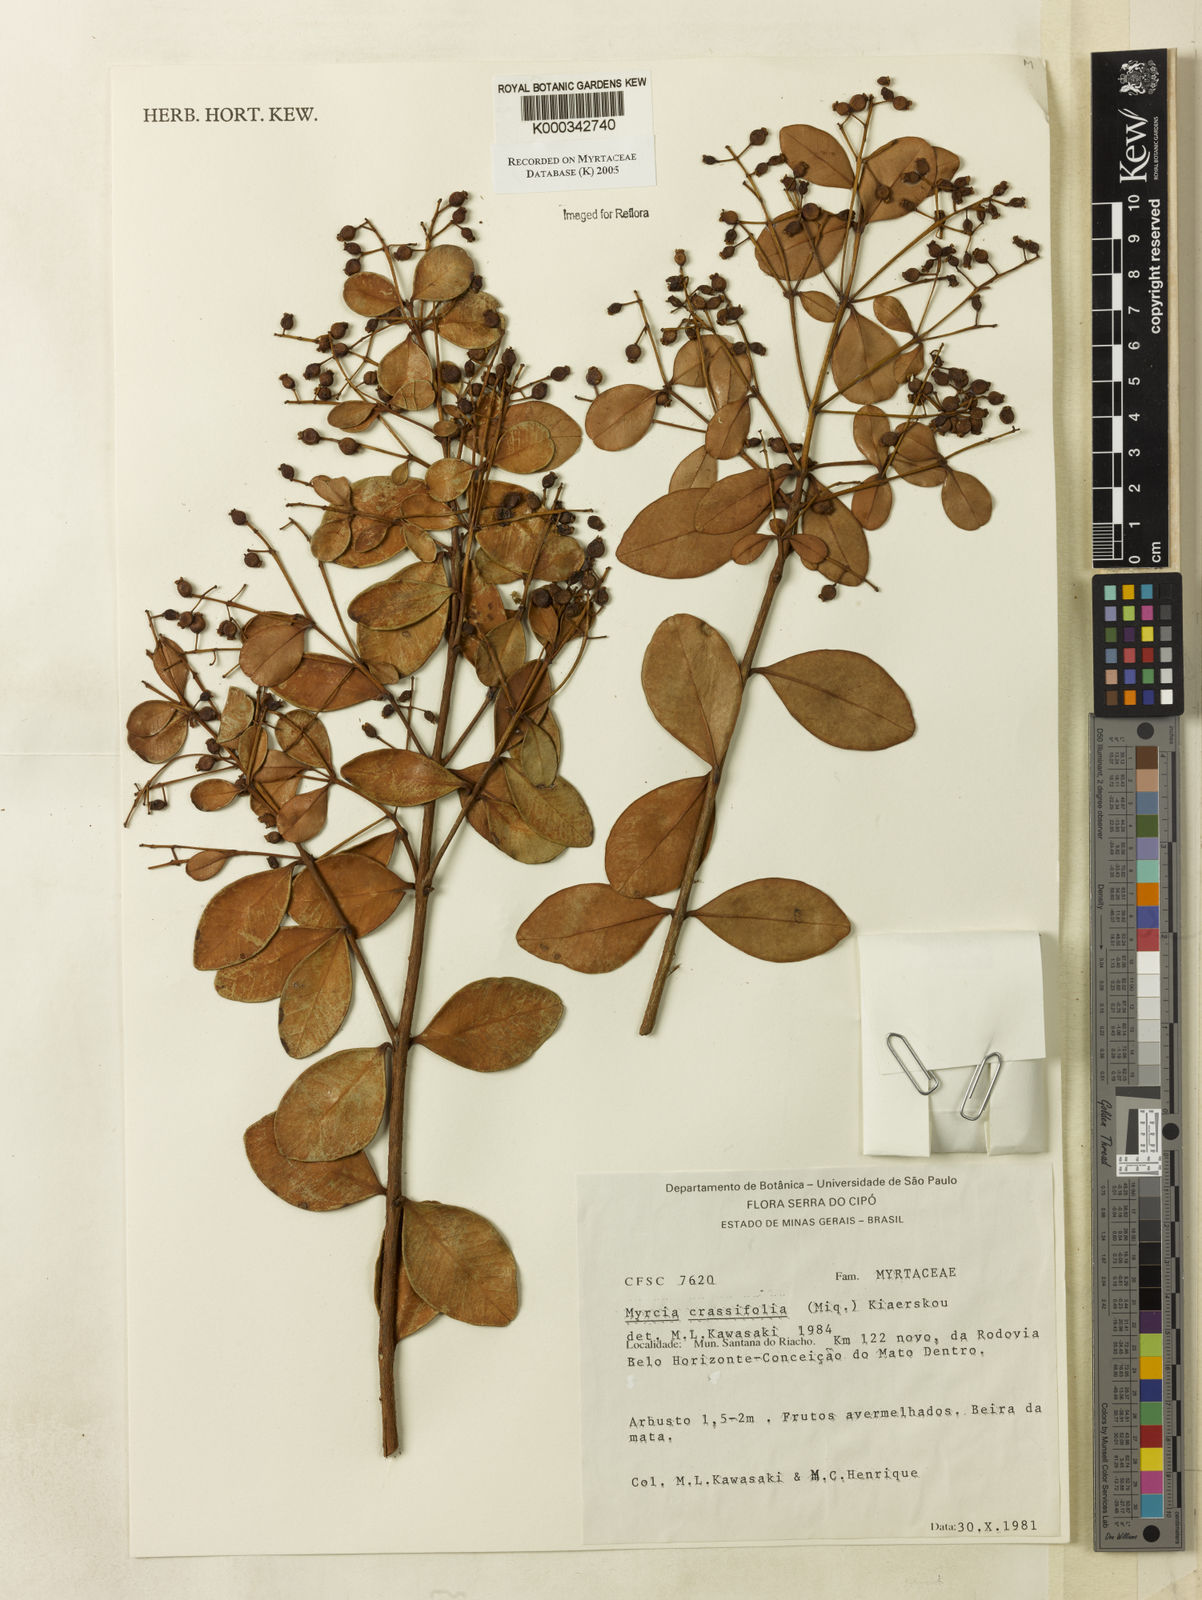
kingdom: Plantae
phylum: Tracheophyta
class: Magnoliopsida
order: Myrtales
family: Myrtaceae
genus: Myrcia
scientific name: Myrcia obovata
